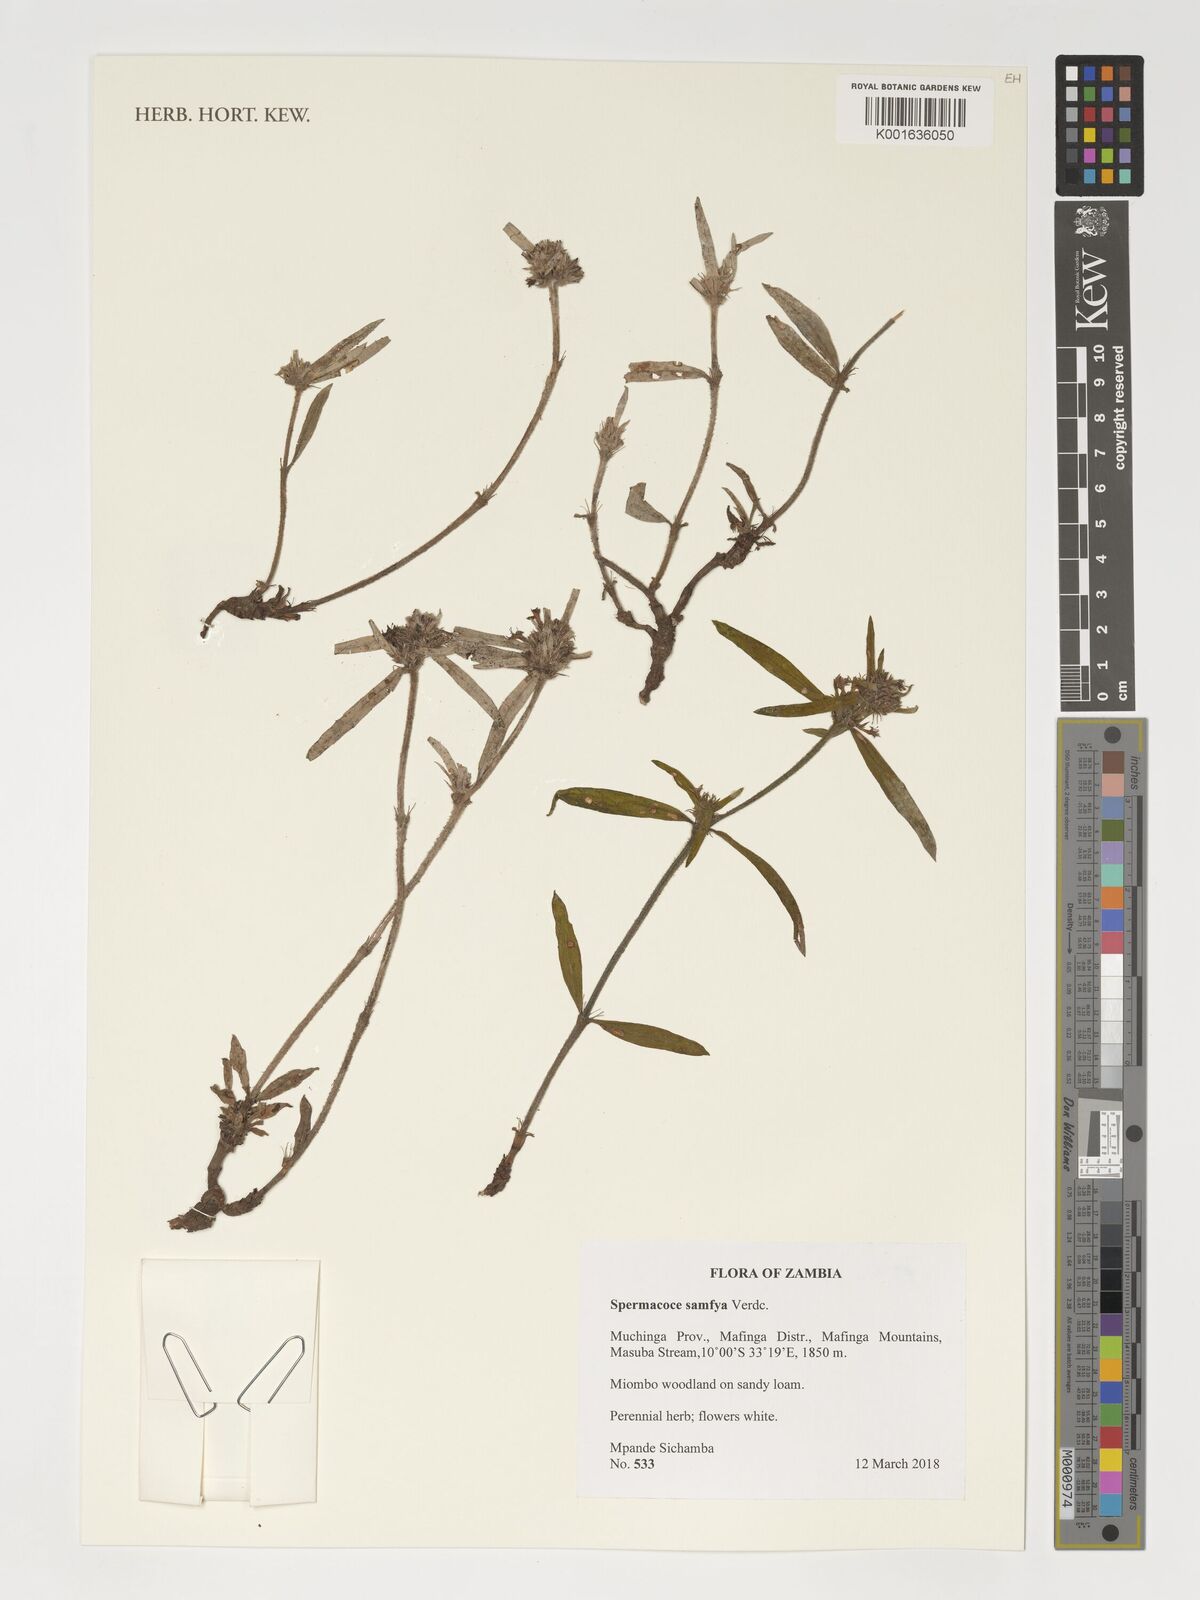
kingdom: Plantae
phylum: Tracheophyta
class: Magnoliopsida
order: Gentianales
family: Rubiaceae
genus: Spermacoce
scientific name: Spermacoce samfya
